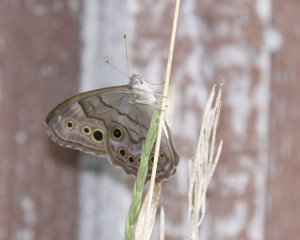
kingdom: Animalia
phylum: Arthropoda
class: Insecta
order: Lepidoptera
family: Nymphalidae
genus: Lethe
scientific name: Lethe anthedon
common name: Northern Pearly-Eye
